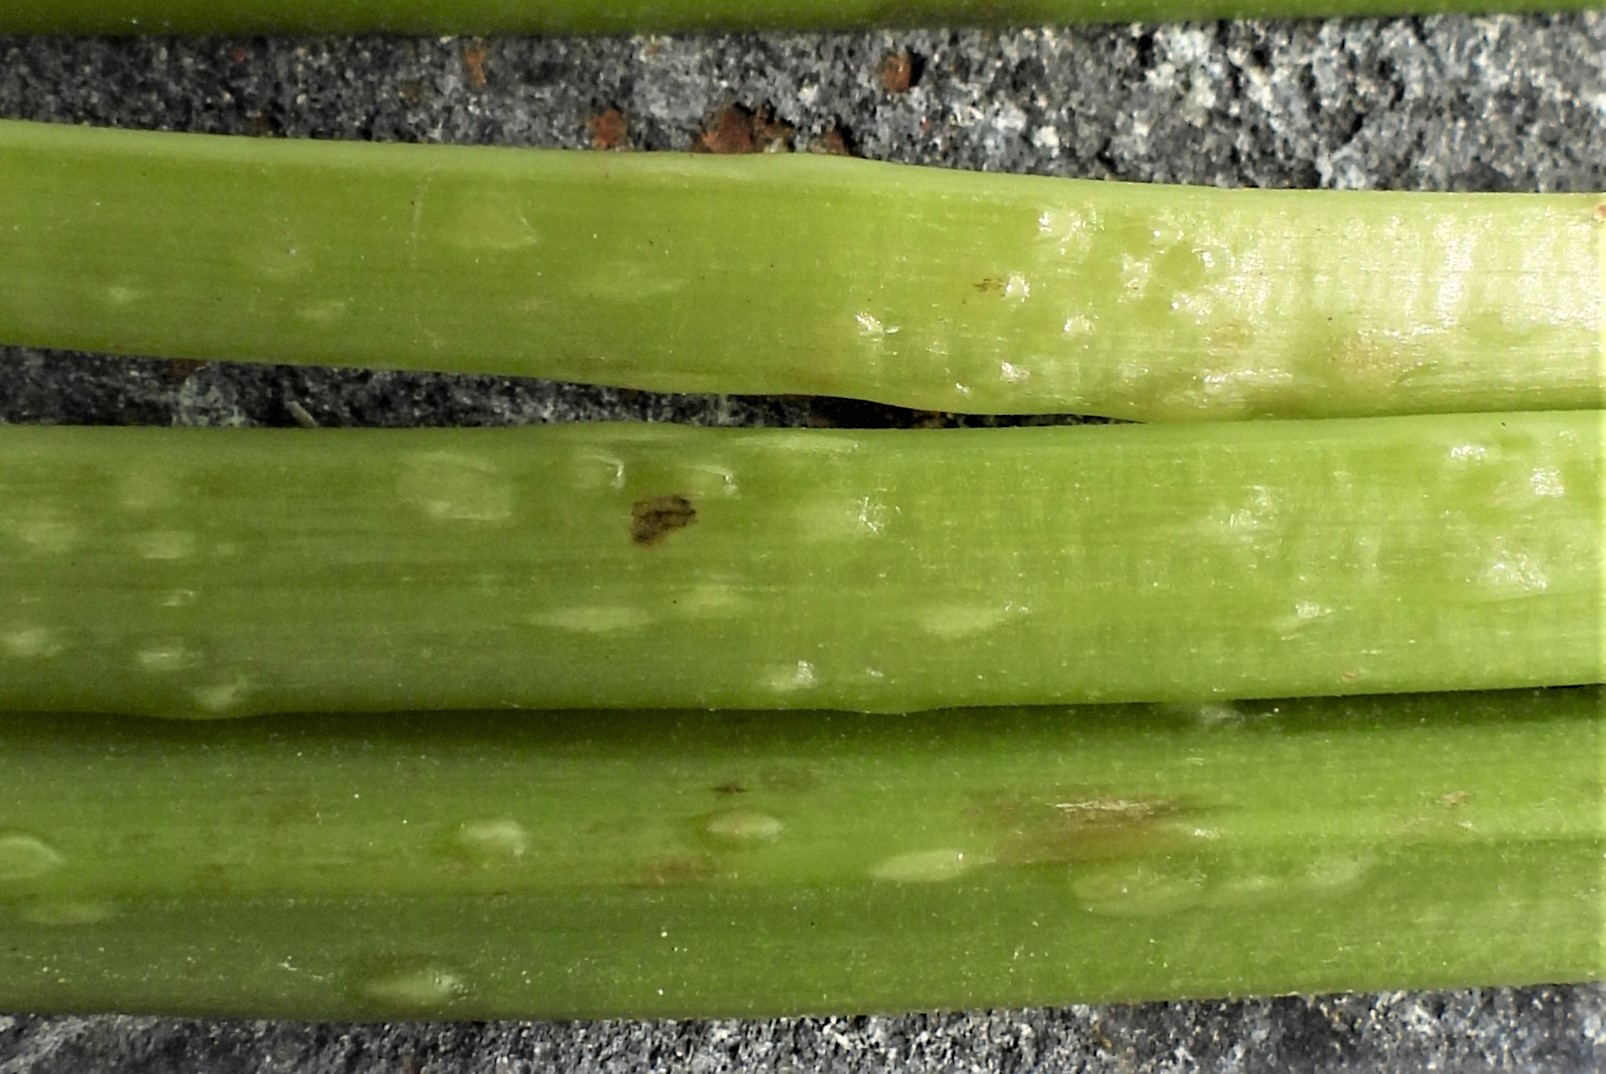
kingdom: Fungi
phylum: Ascomycota
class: Taphrinomycetes
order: Taphrinales
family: Taphrinaceae
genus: Protomyces
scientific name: Protomyces macrosporus
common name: skvalderkål-vablesæk
